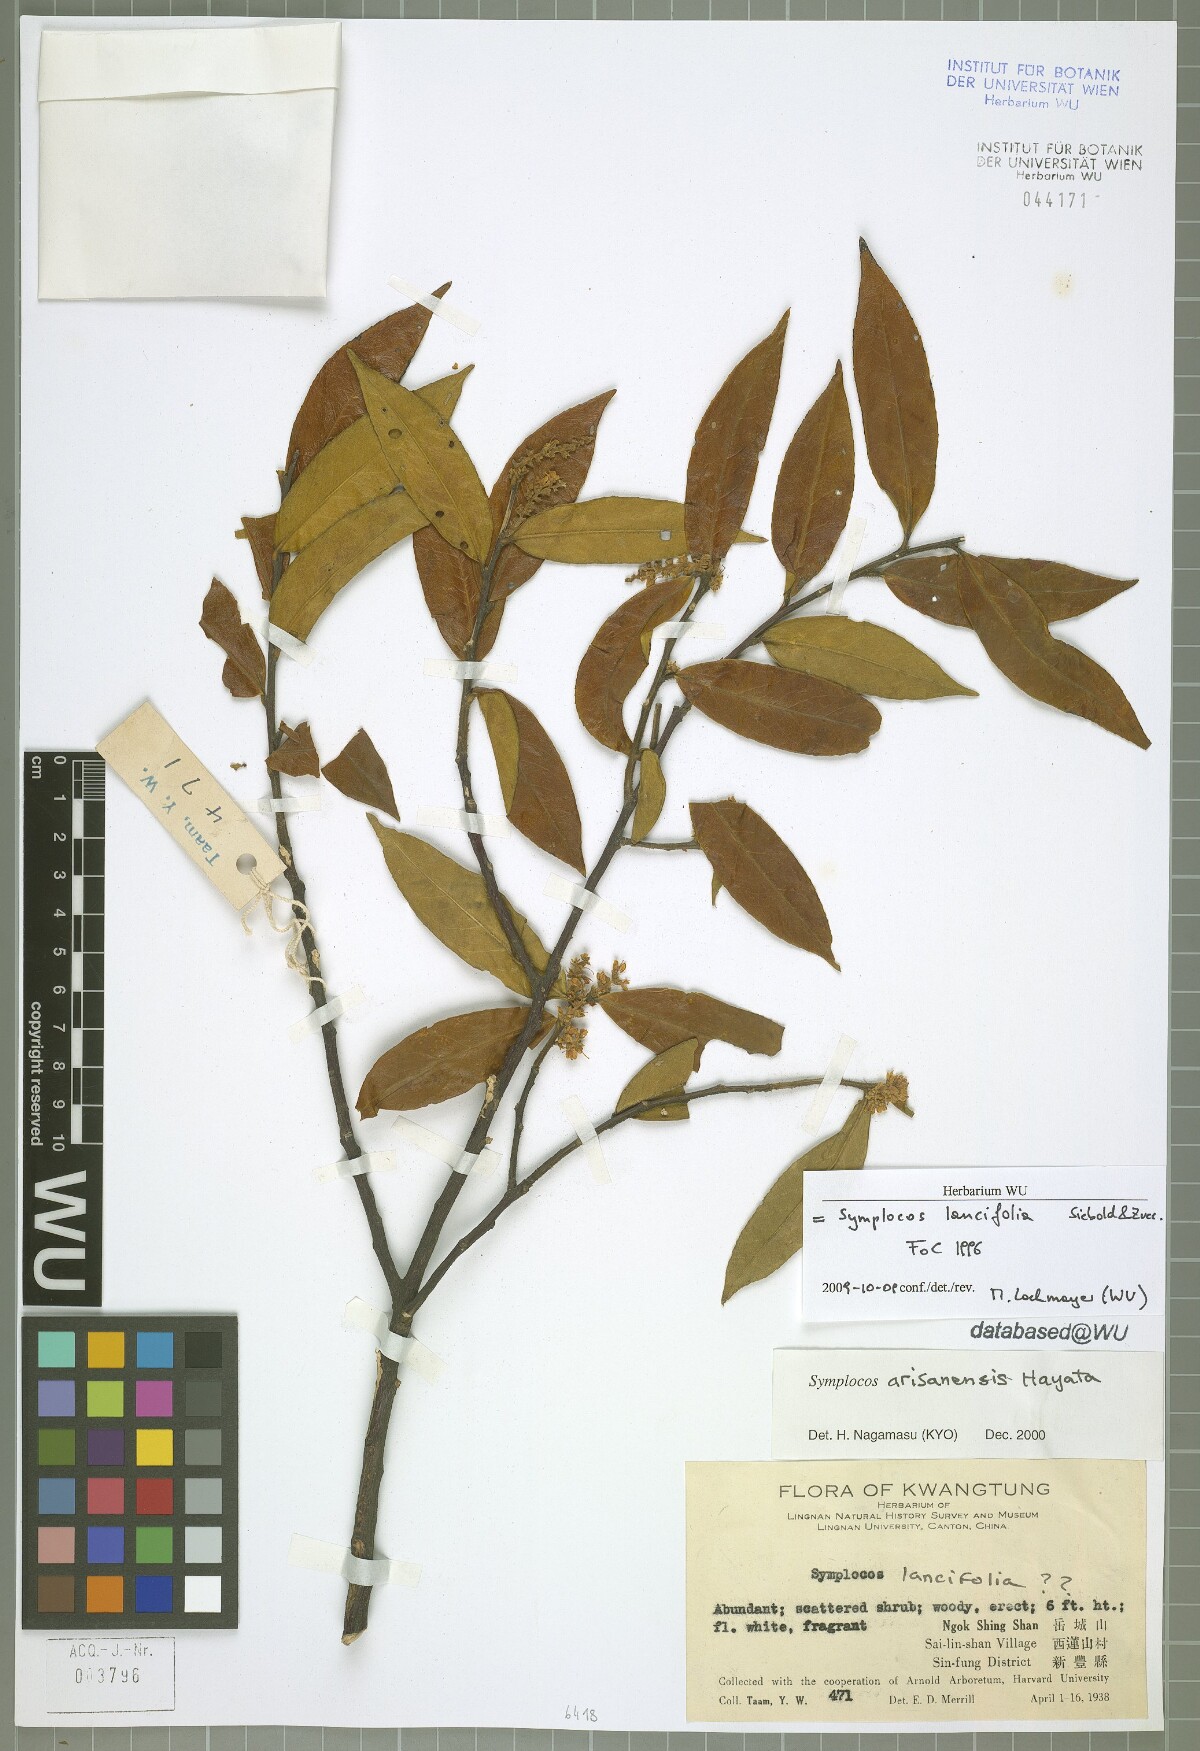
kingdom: Plantae
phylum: Tracheophyta
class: Magnoliopsida
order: Ericales
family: Symplocaceae
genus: Symplocos
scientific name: Symplocos lancifolia
